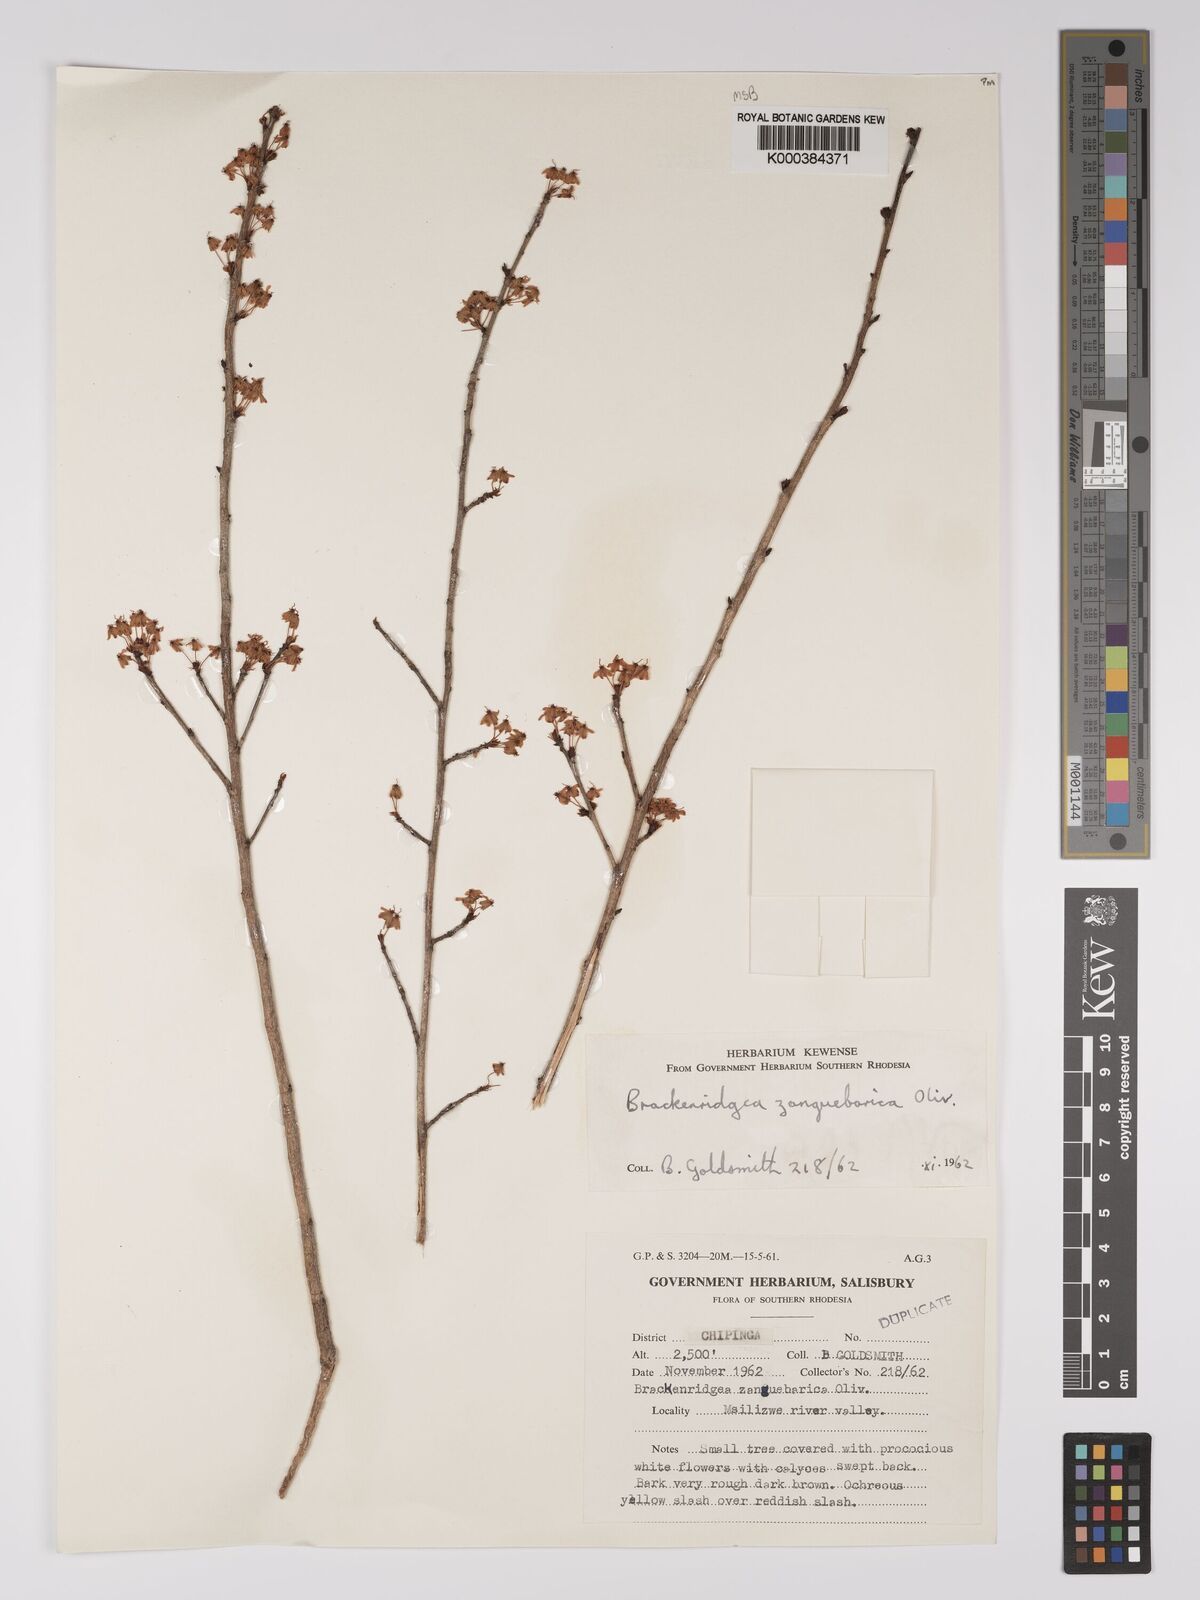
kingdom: Plantae
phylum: Tracheophyta
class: Magnoliopsida
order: Malpighiales
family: Ochnaceae
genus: Brackenridgea
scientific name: Brackenridgea zanguebarica
